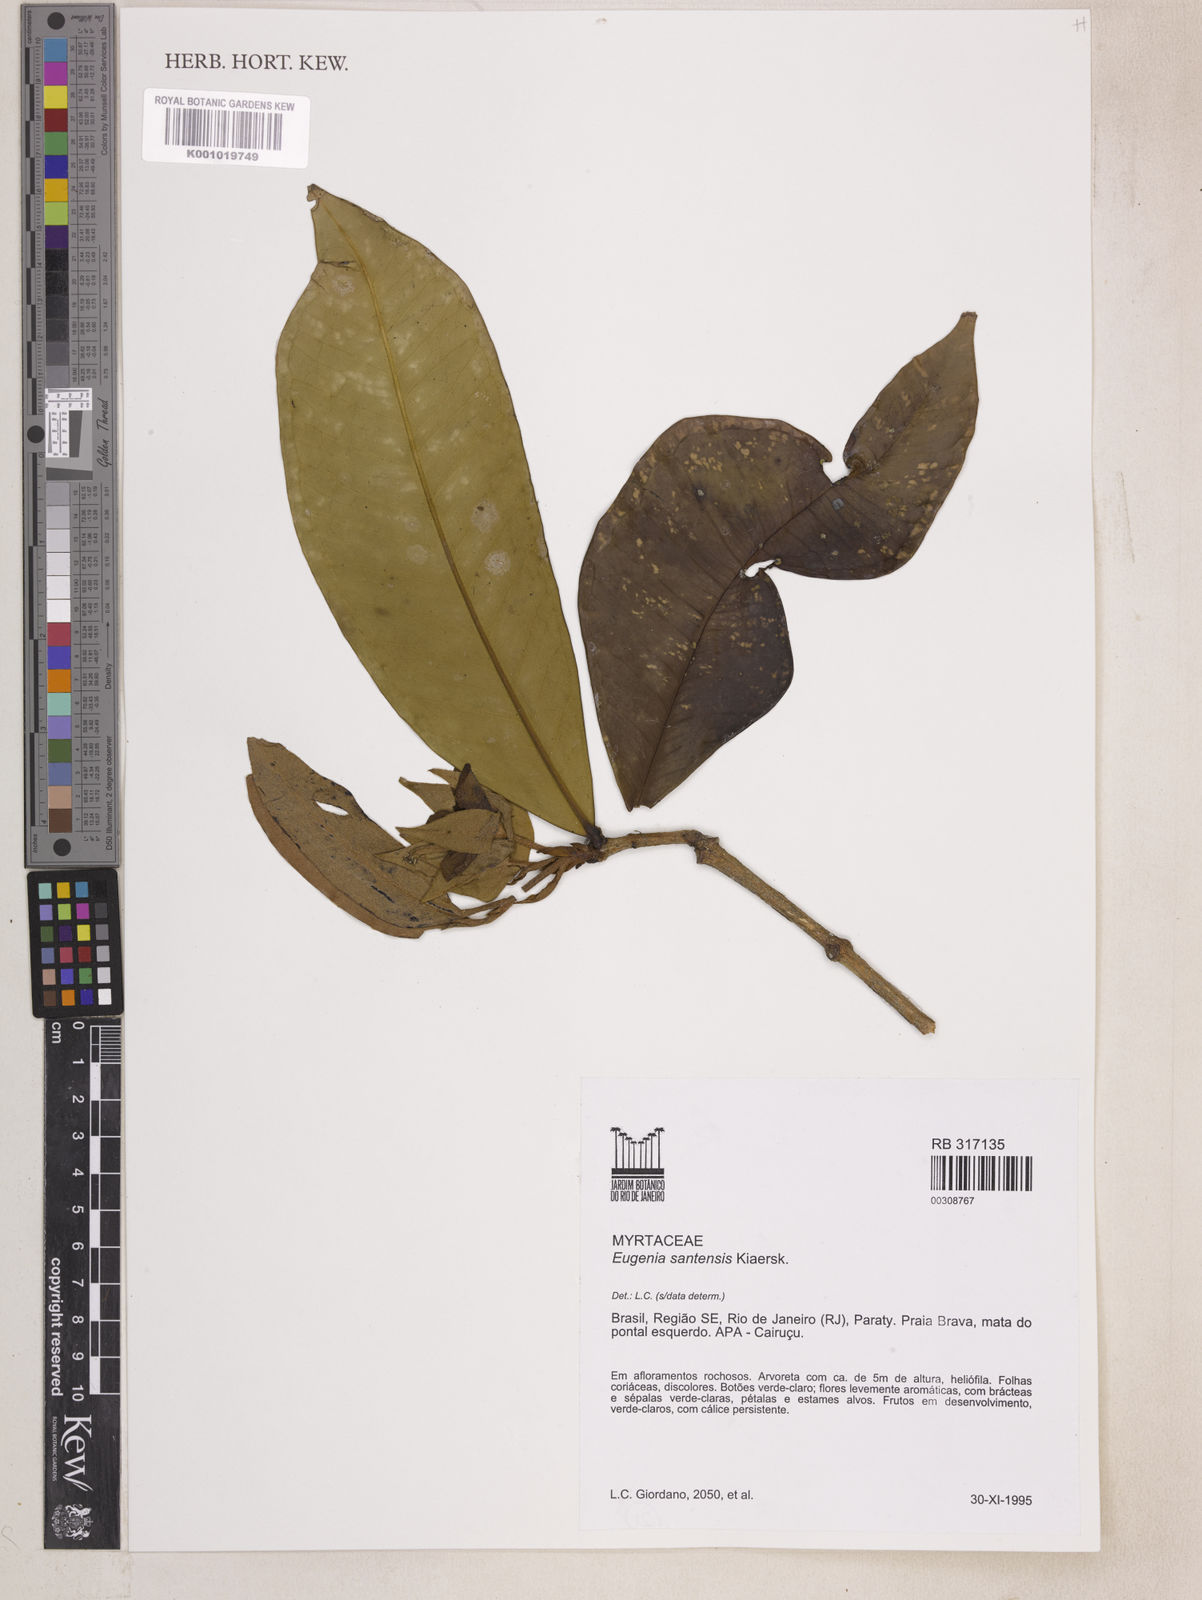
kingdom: Plantae
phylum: Tracheophyta
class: Magnoliopsida
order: Myrtales
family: Myrtaceae
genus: Eugenia
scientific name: Eugenia regia
